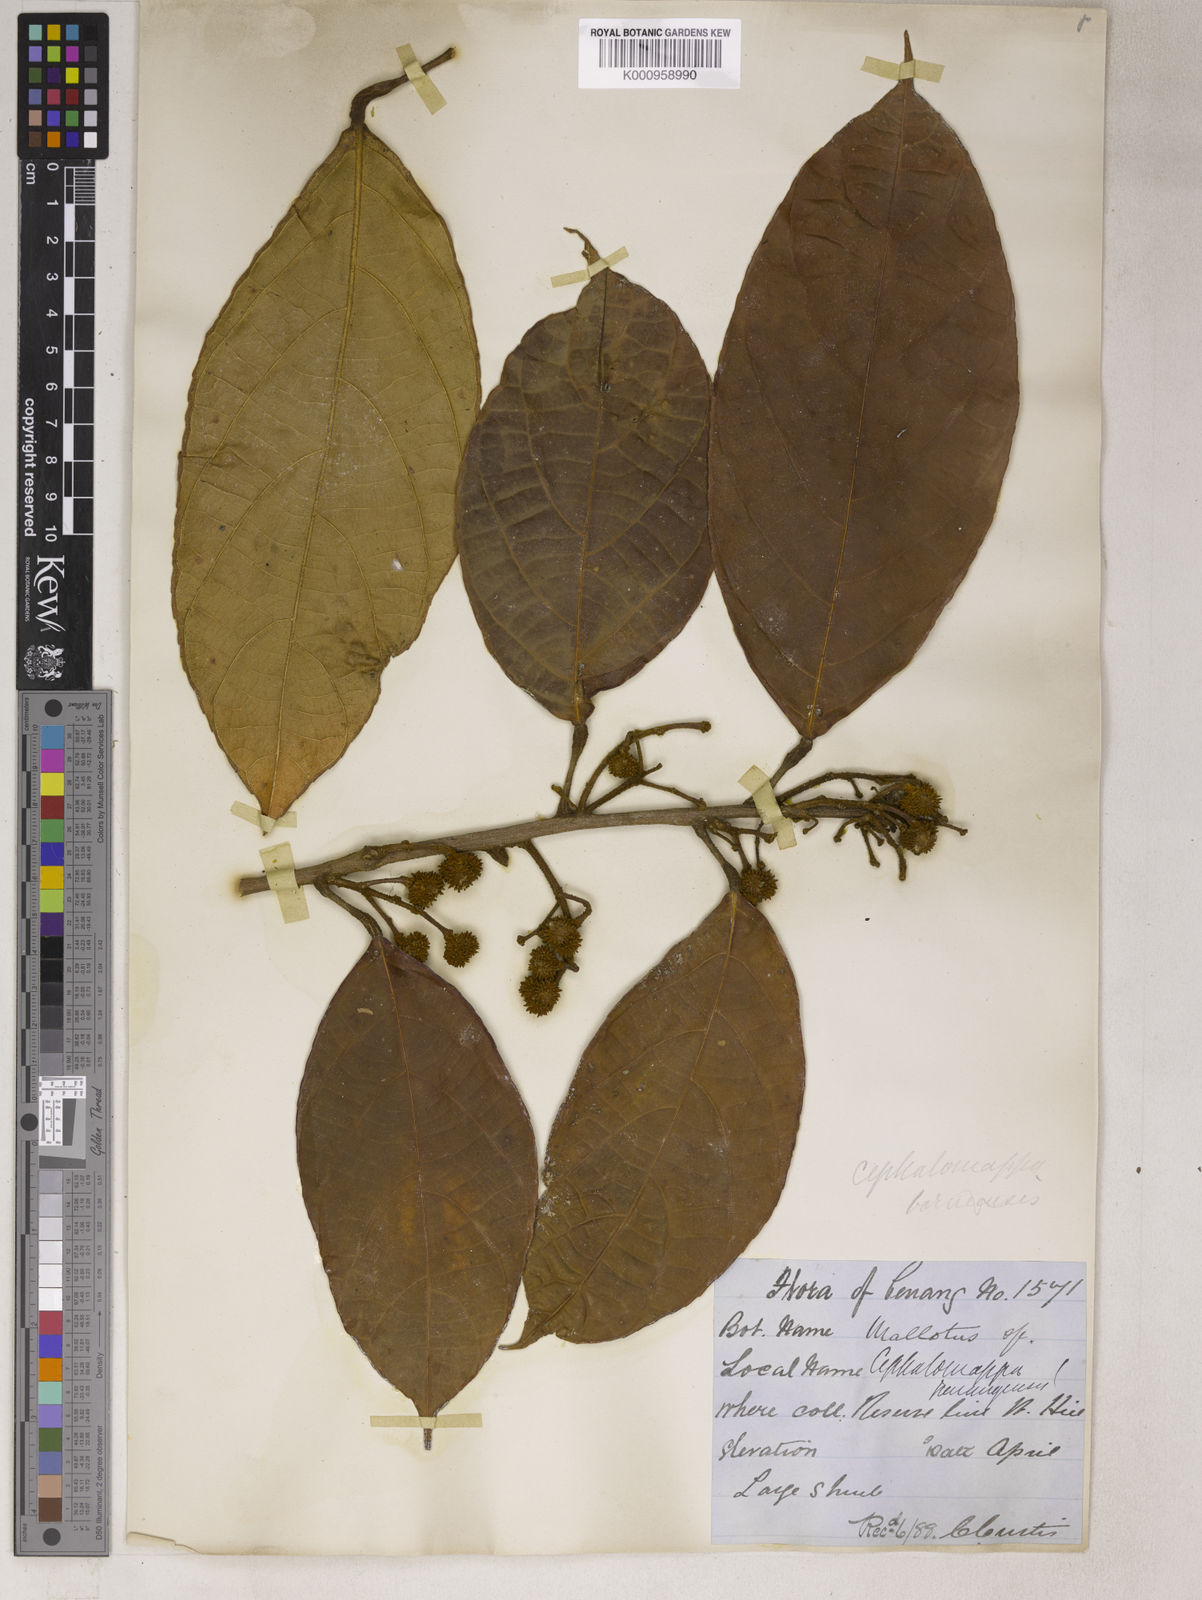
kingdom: Plantae
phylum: Tracheophyta
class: Magnoliopsida
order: Malpighiales
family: Euphorbiaceae
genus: Cephalomappa
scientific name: Cephalomappa penangensis
